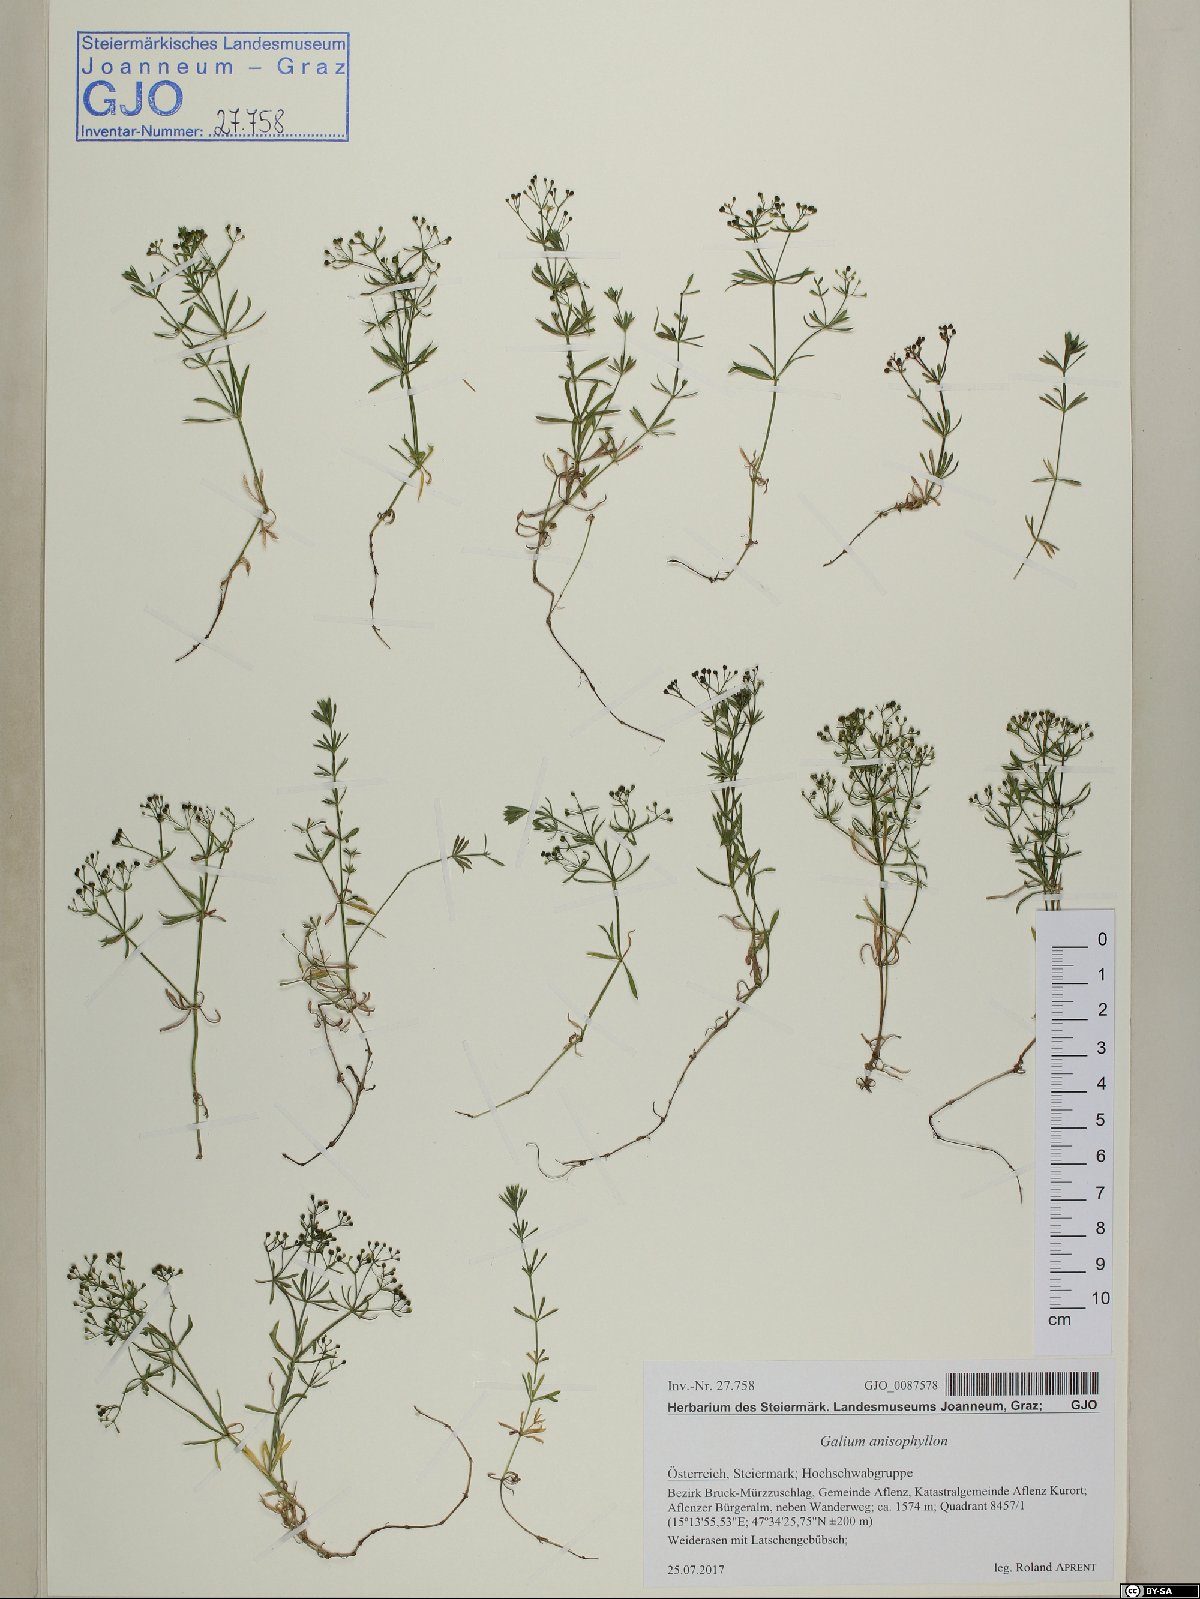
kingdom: Plantae
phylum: Tracheophyta
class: Magnoliopsida
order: Gentianales
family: Rubiaceae
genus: Galium
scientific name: Galium anisophyllon
